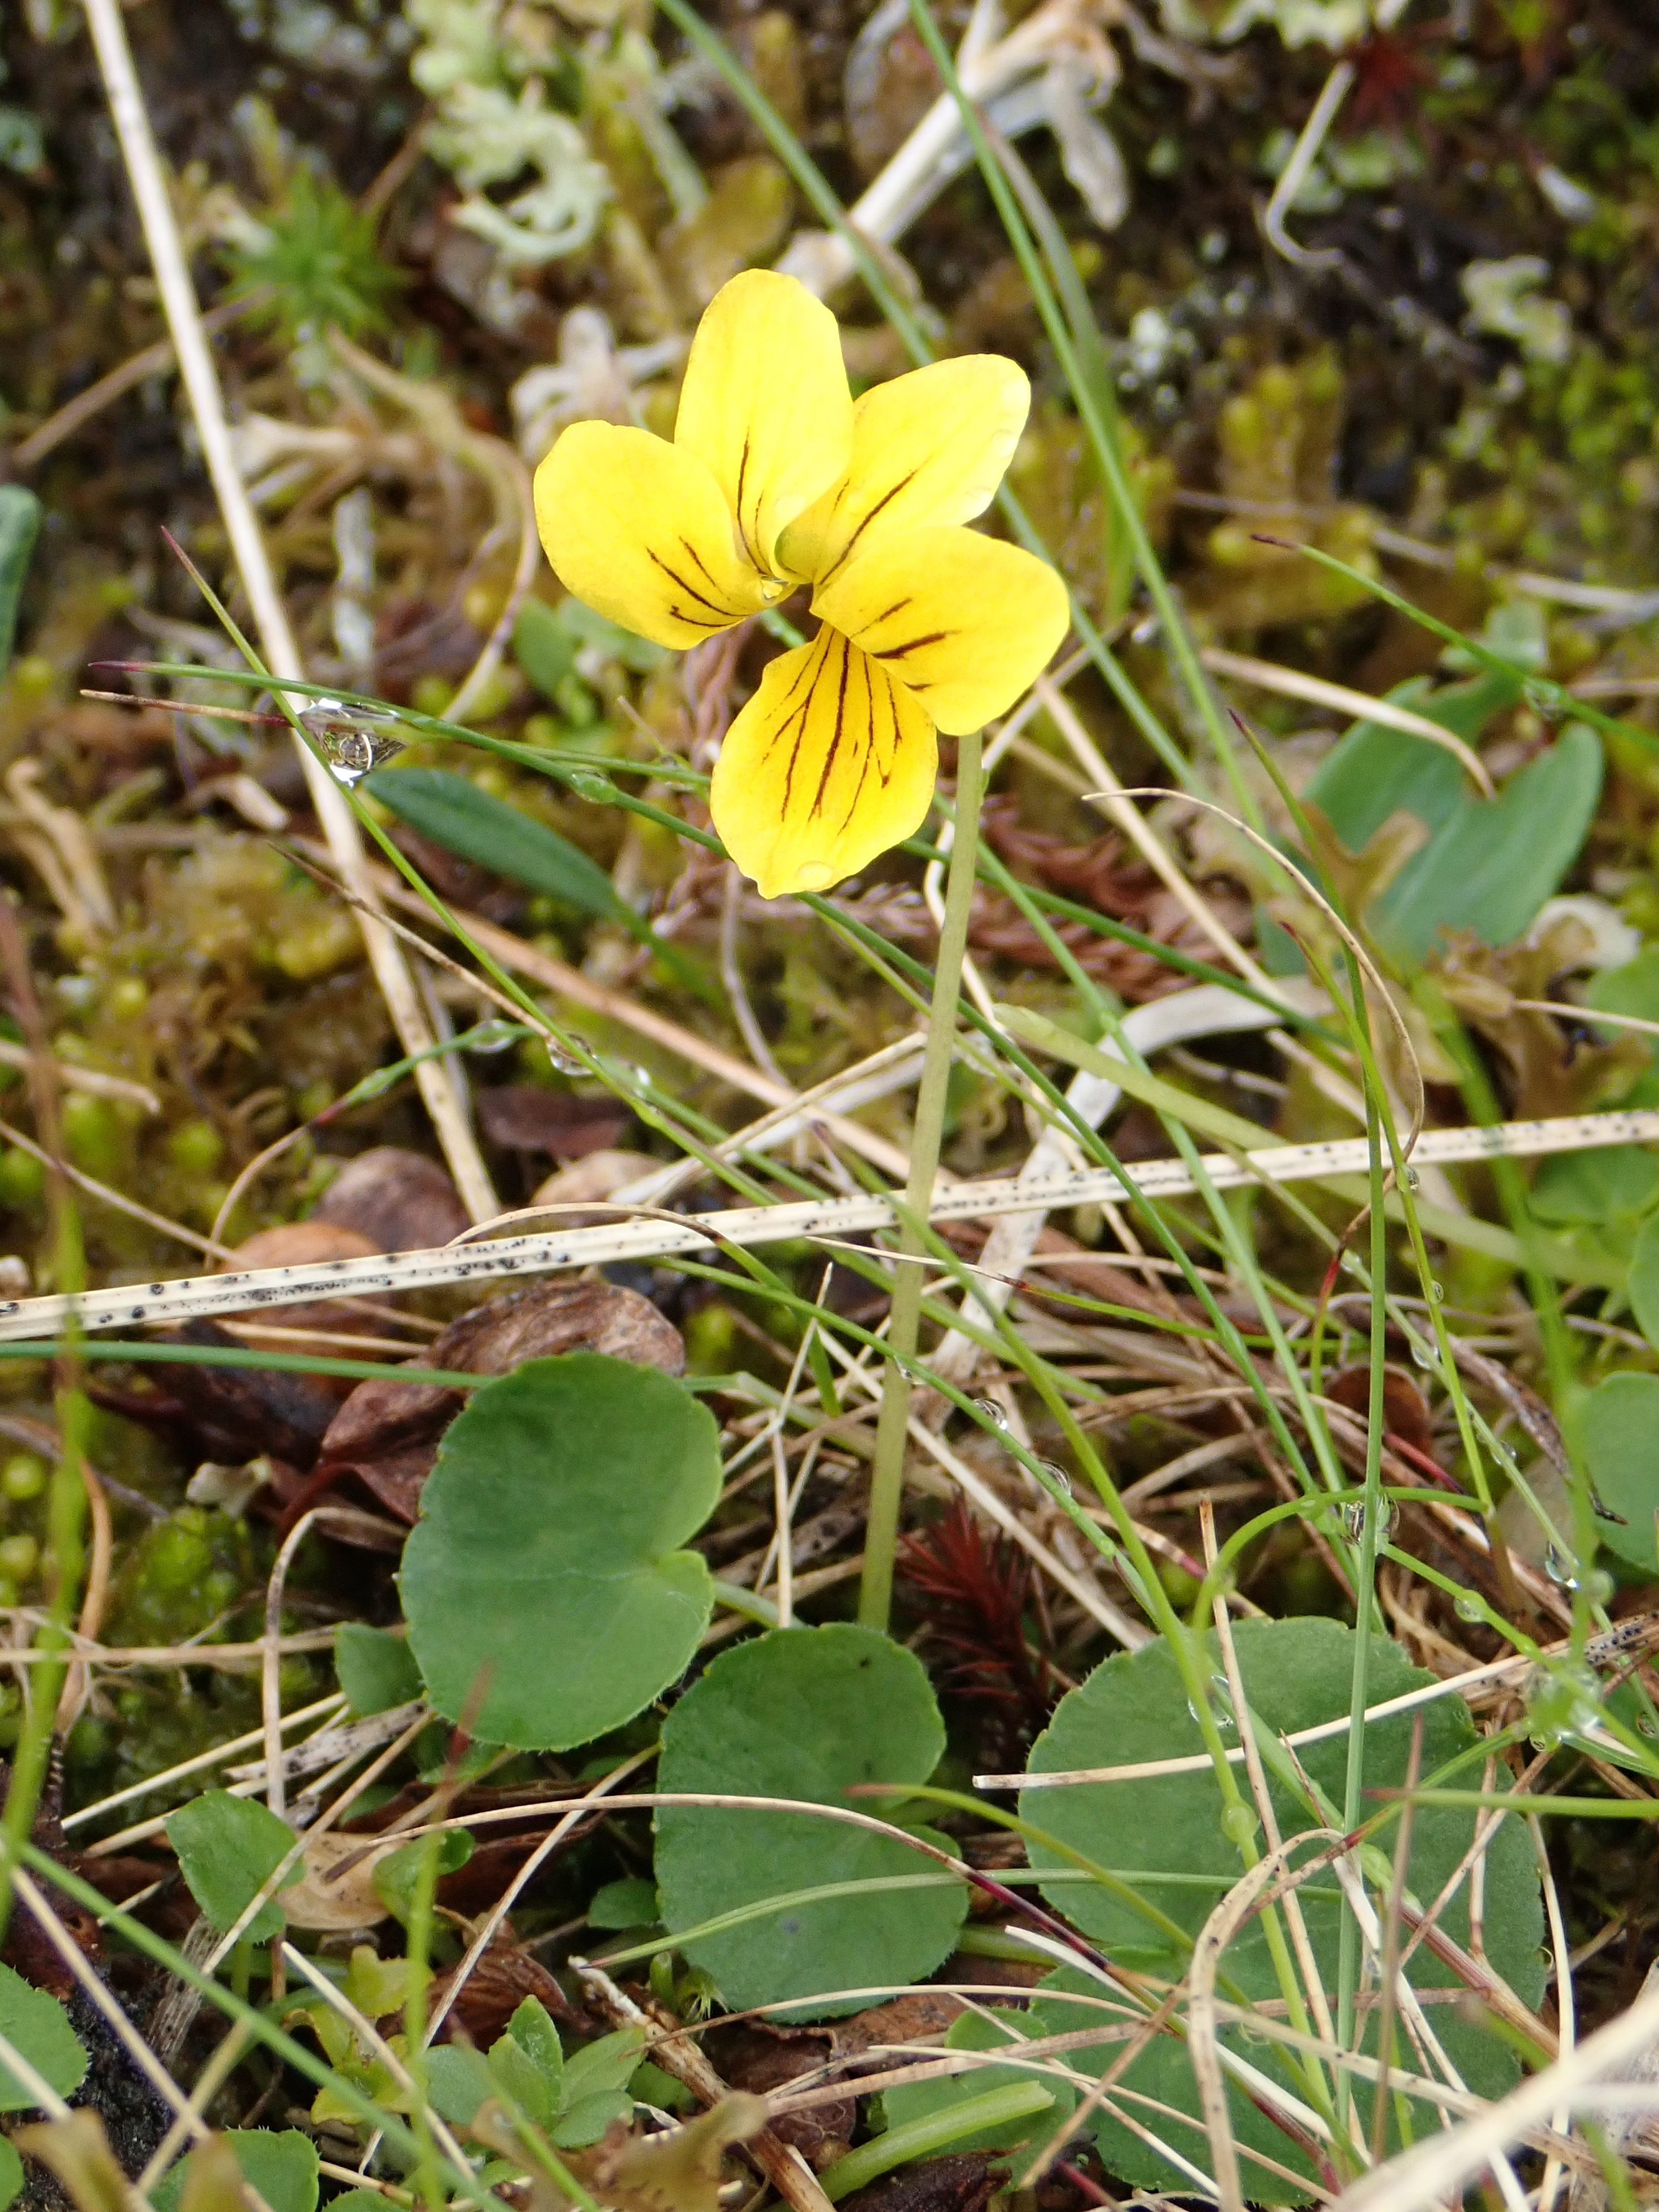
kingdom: Plantae
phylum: Tracheophyta
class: Magnoliopsida
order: Malpighiales
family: Violaceae
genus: Viola
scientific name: Viola biflora
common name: Alpine yellow violet
